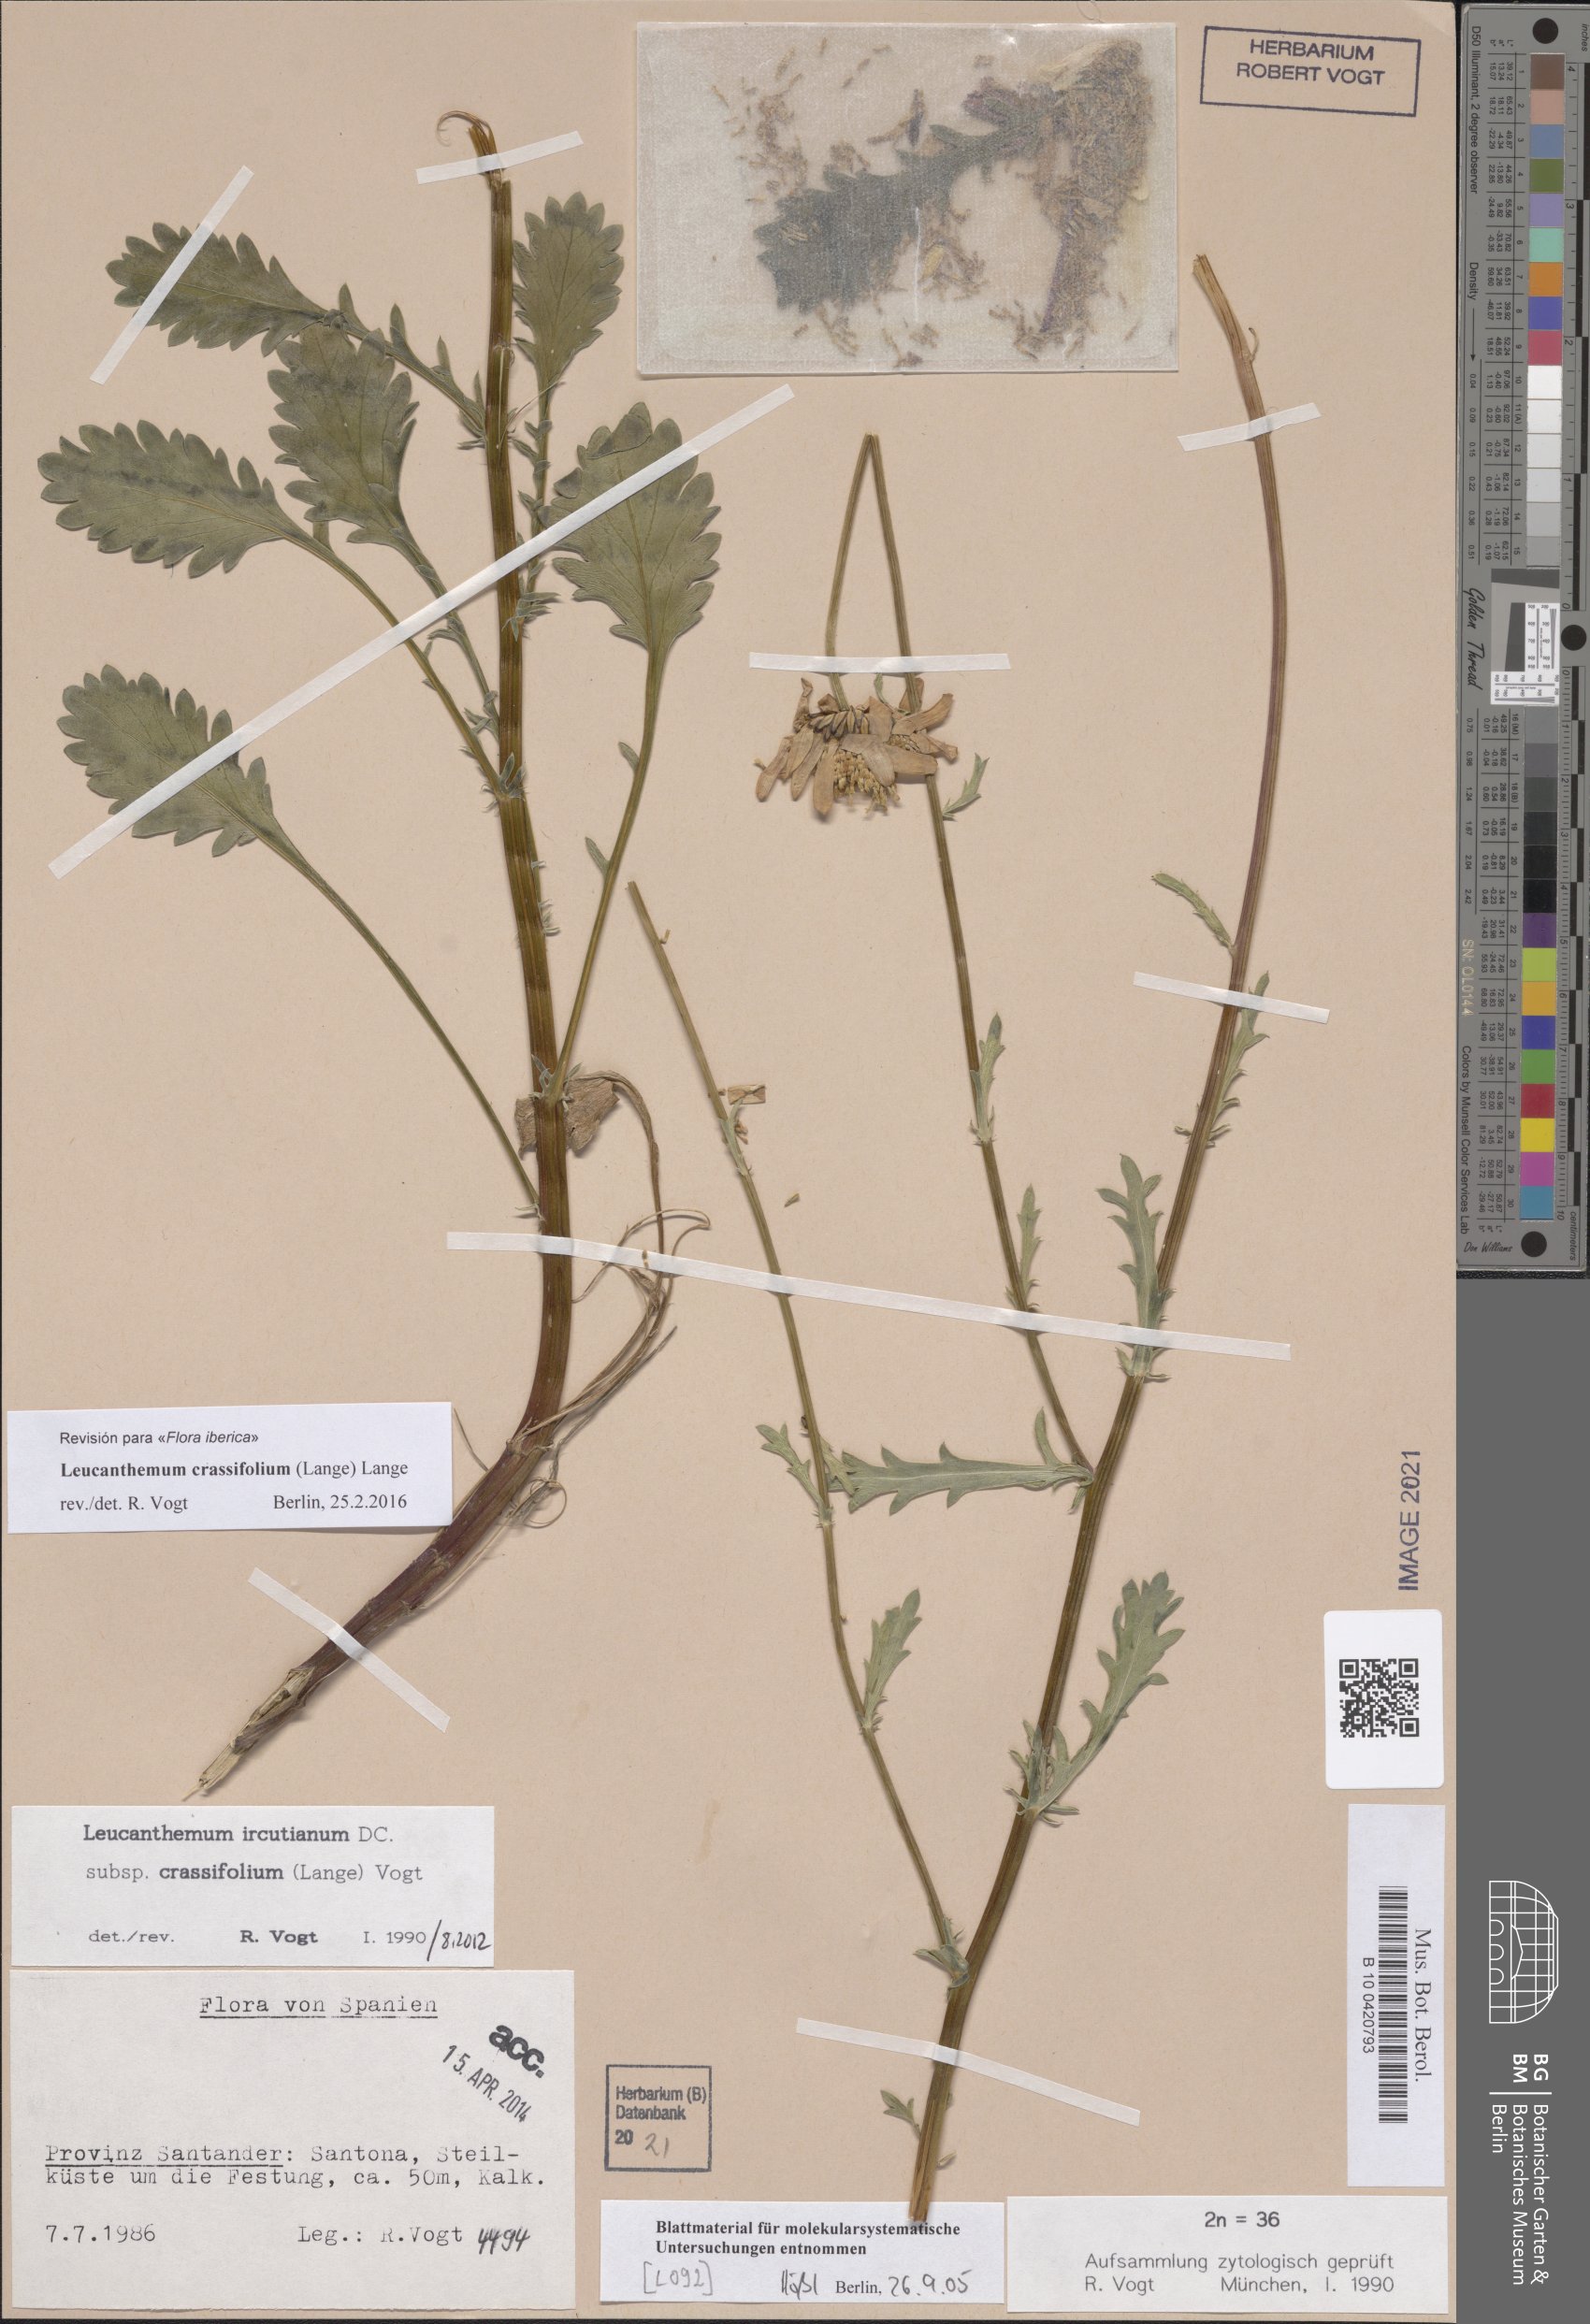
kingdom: Plantae
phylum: Tracheophyta
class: Magnoliopsida
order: Asterales
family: Asteraceae
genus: Leucanthemum
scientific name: Leucanthemum crassifolium
